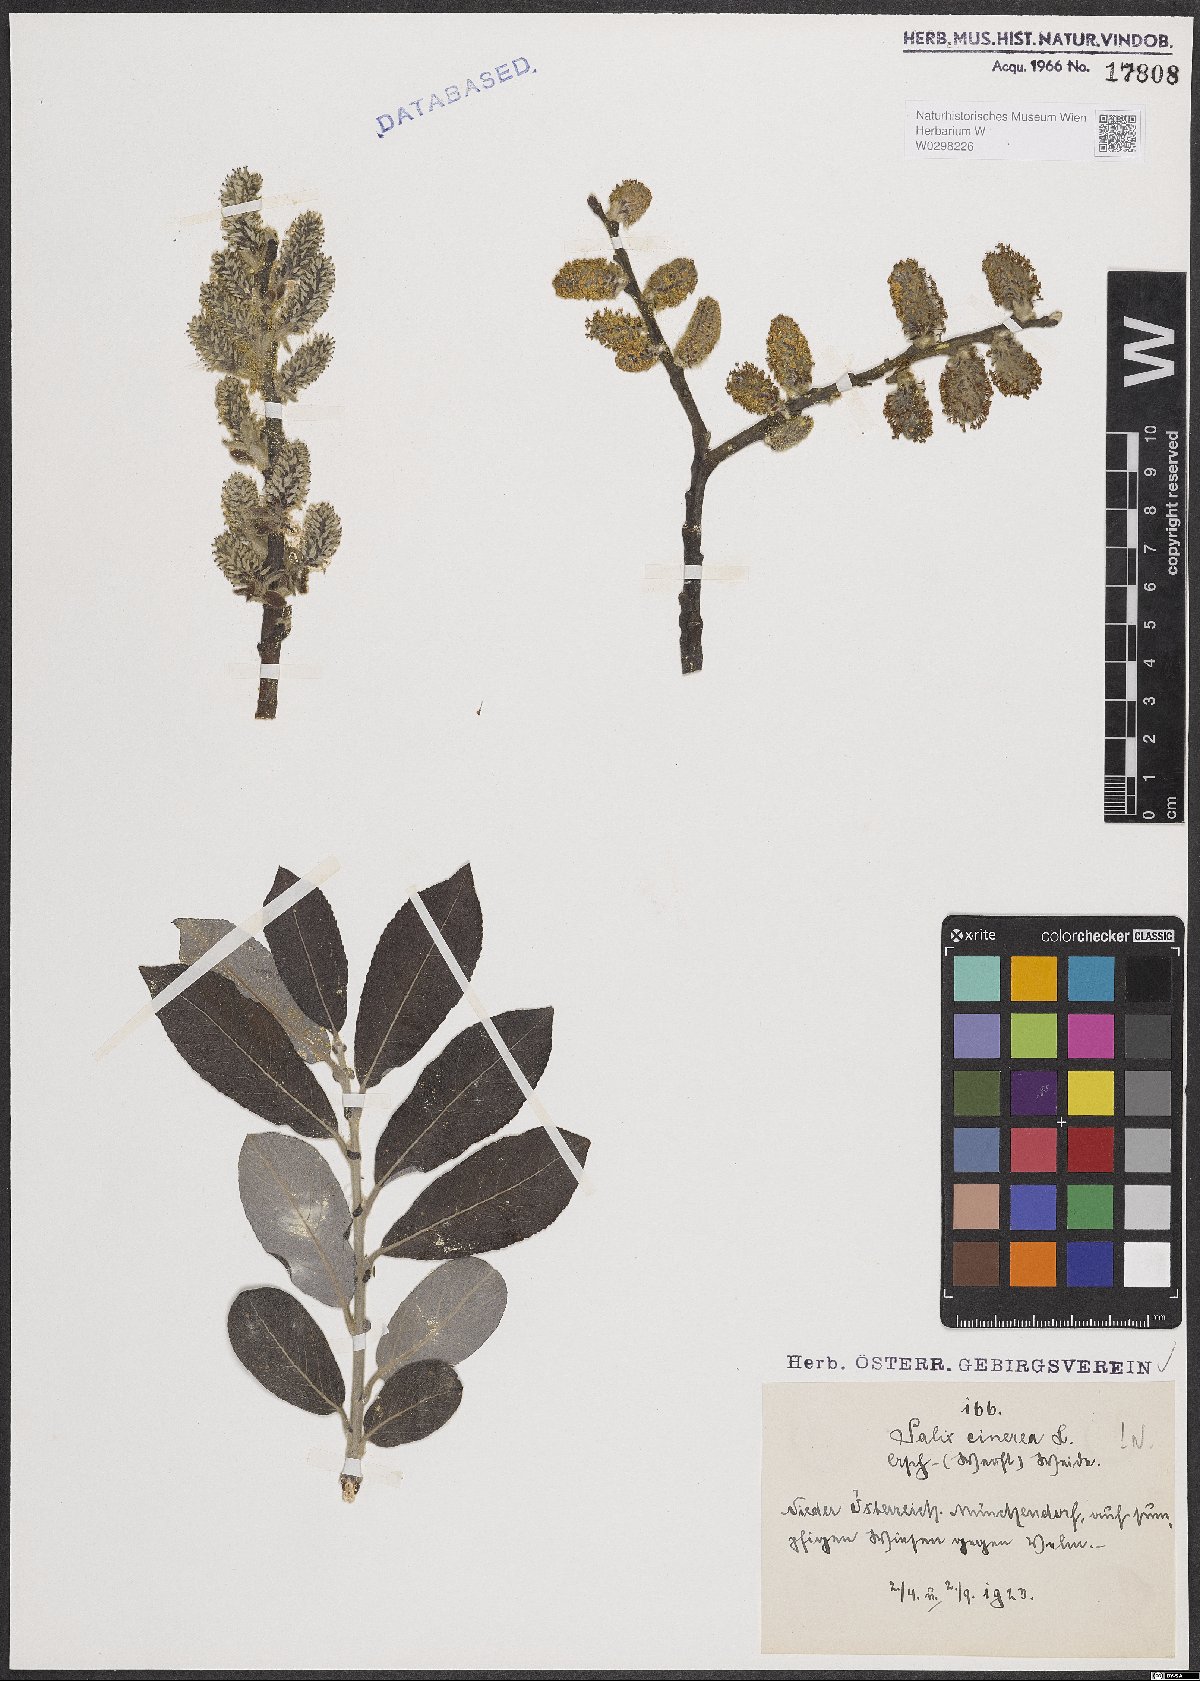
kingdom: Plantae
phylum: Tracheophyta
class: Magnoliopsida
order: Malpighiales
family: Salicaceae
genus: Salix
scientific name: Salix cinerea
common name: Common sallow
